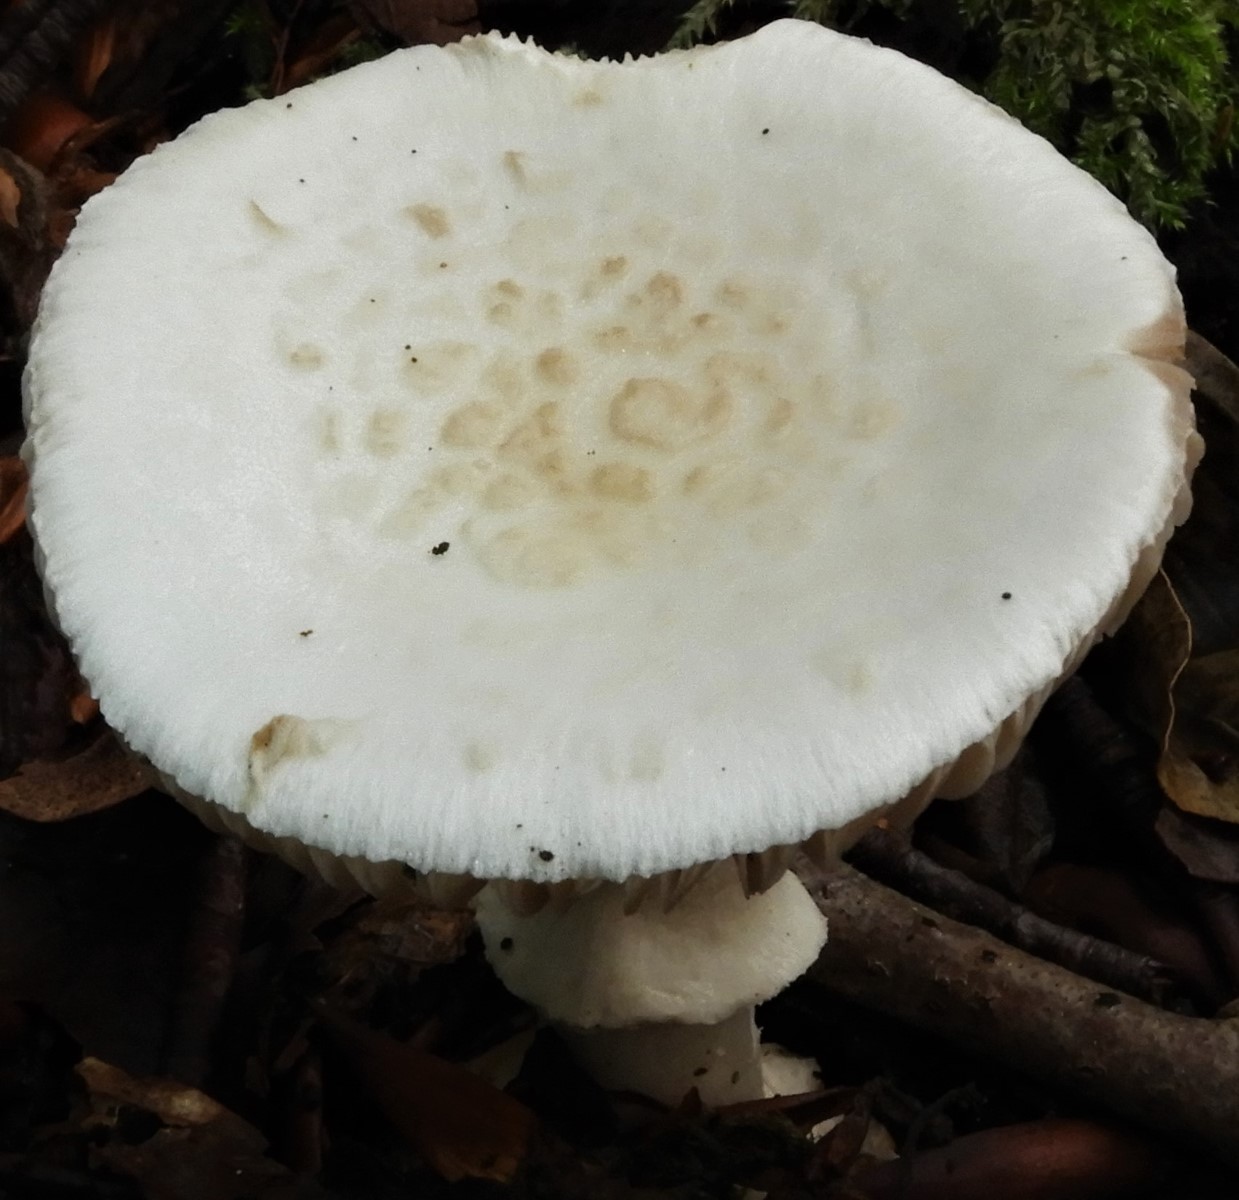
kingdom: Fungi
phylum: Basidiomycota
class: Agaricomycetes
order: Agaricales
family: Amanitaceae
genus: Amanita
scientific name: Amanita citrina
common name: False death-cap
